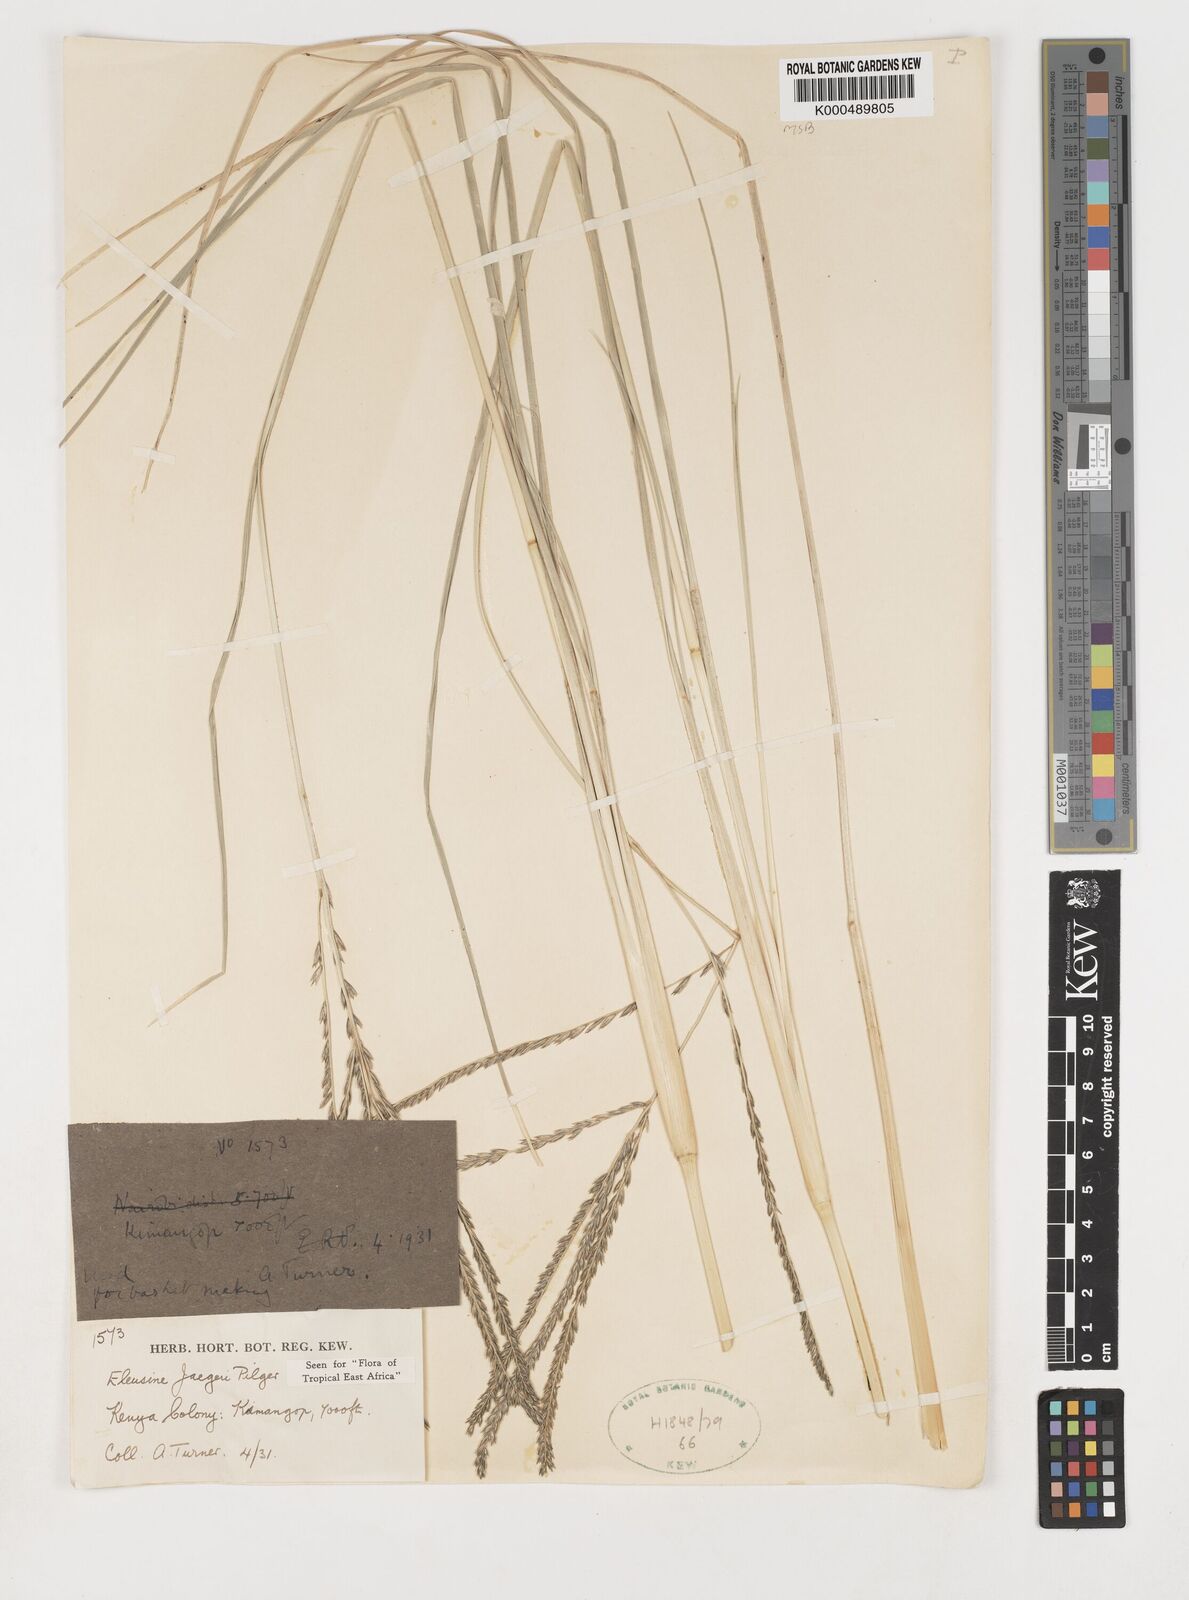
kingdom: Plantae
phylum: Tracheophyta
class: Liliopsida
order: Poales
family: Poaceae
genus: Eleusine
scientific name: Eleusine jaegeri
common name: Manyatta grass
